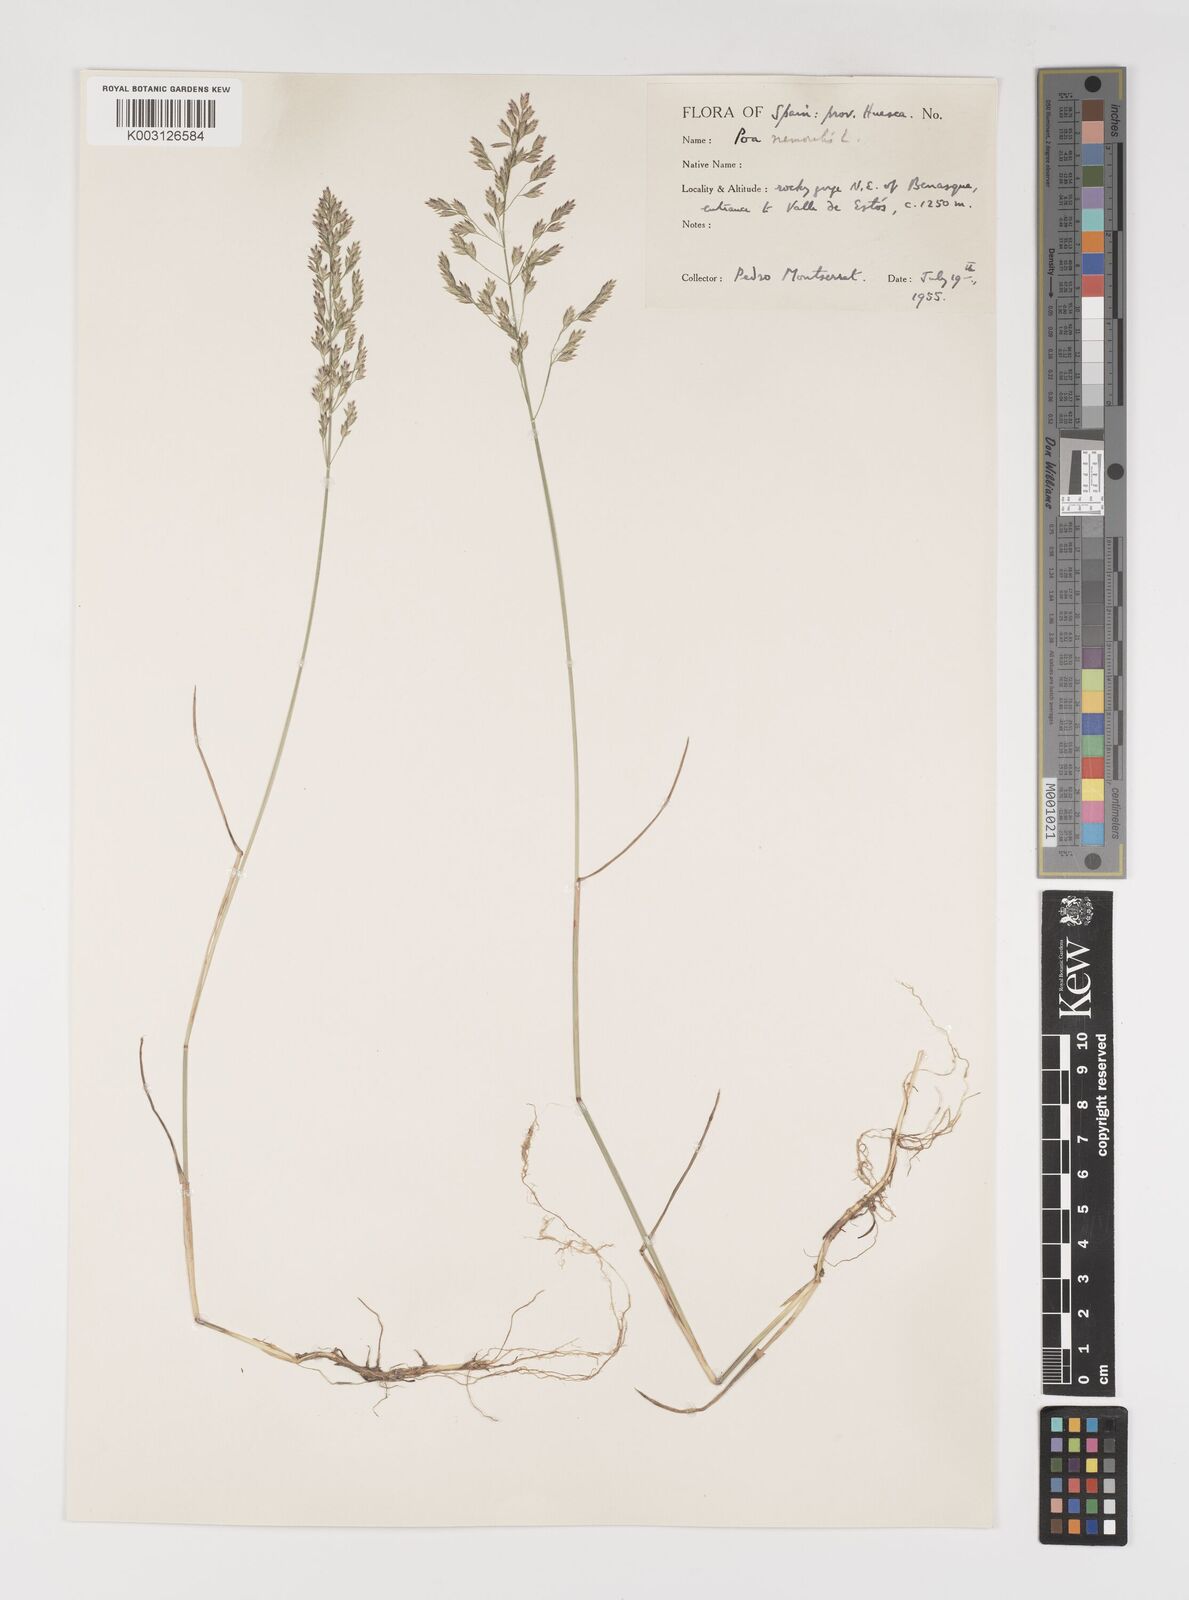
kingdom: Plantae
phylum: Tracheophyta
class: Liliopsida
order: Poales
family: Poaceae
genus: Poa
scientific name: Poa nemoralis
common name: Wood bluegrass
